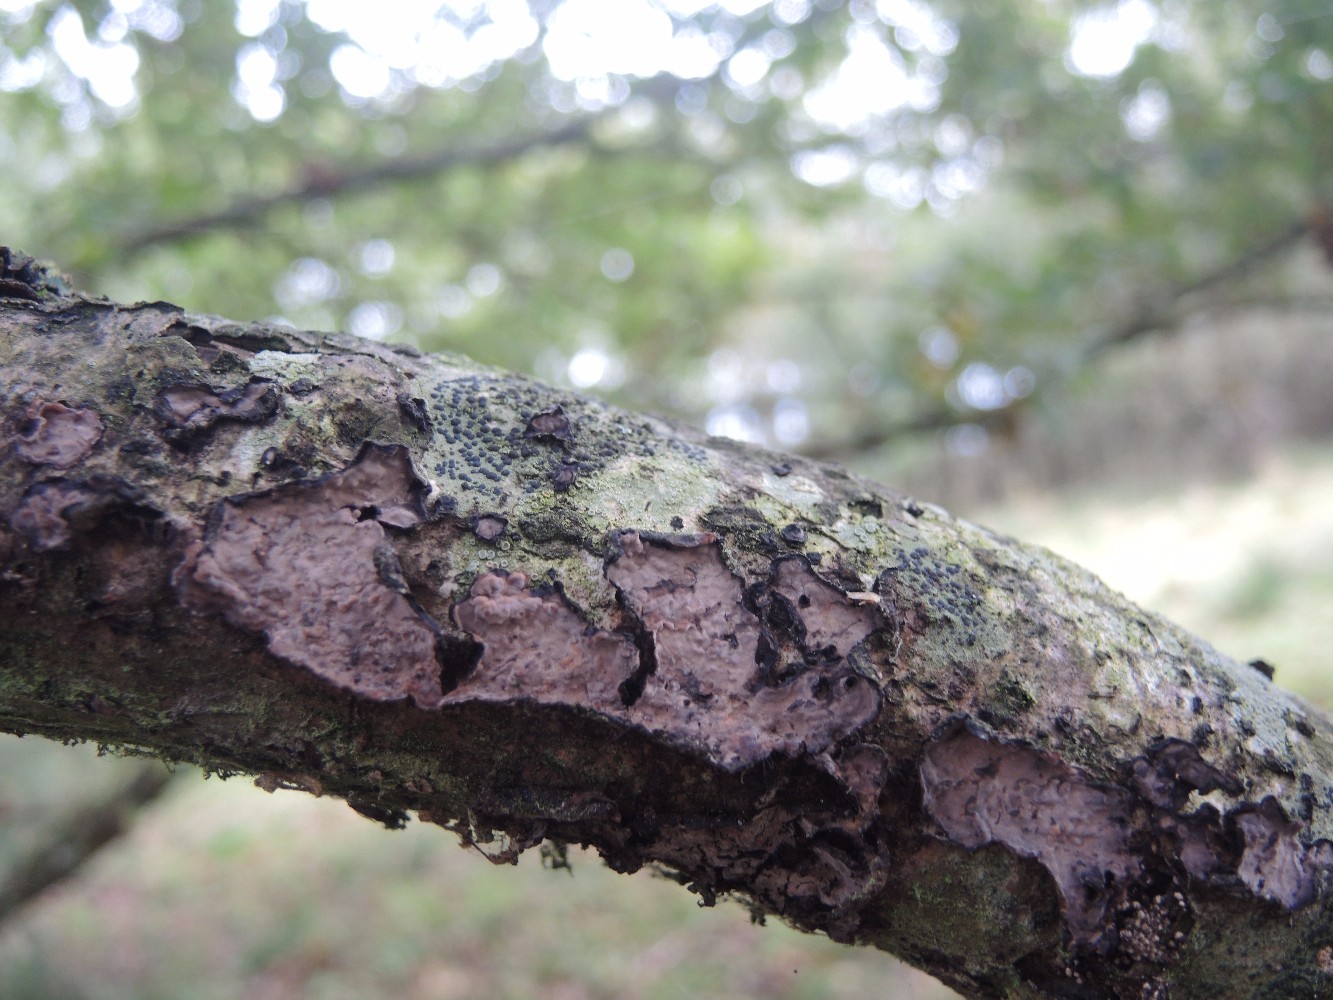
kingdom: Fungi
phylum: Basidiomycota
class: Agaricomycetes
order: Russulales
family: Peniophoraceae
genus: Peniophora
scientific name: Peniophora quercina
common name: ege-voksskind
